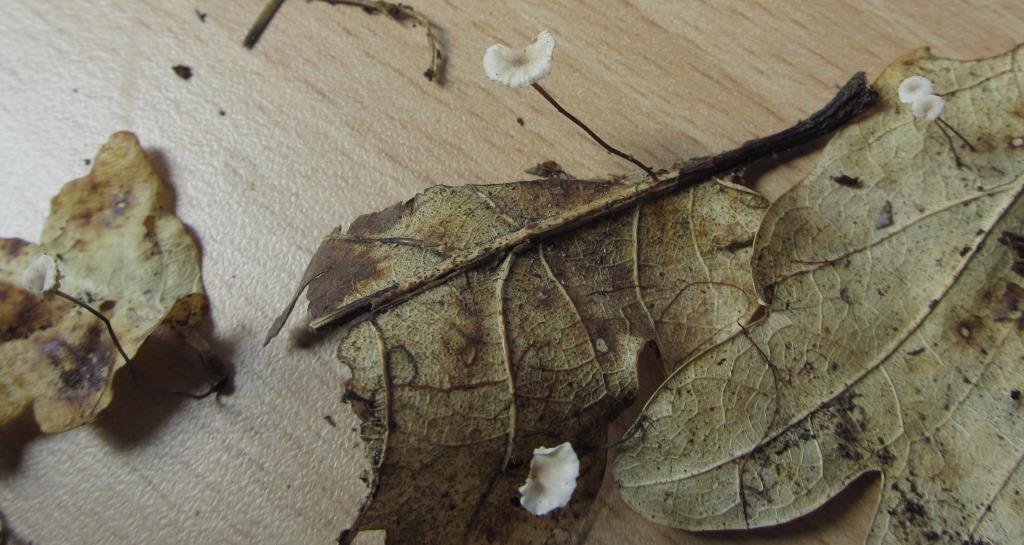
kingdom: Fungi
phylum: Basidiomycota
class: Agaricomycetes
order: Agaricales
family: Omphalotaceae
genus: Collybiopsis
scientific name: Collybiopsis quercophila
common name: egeblads-bruskhat
